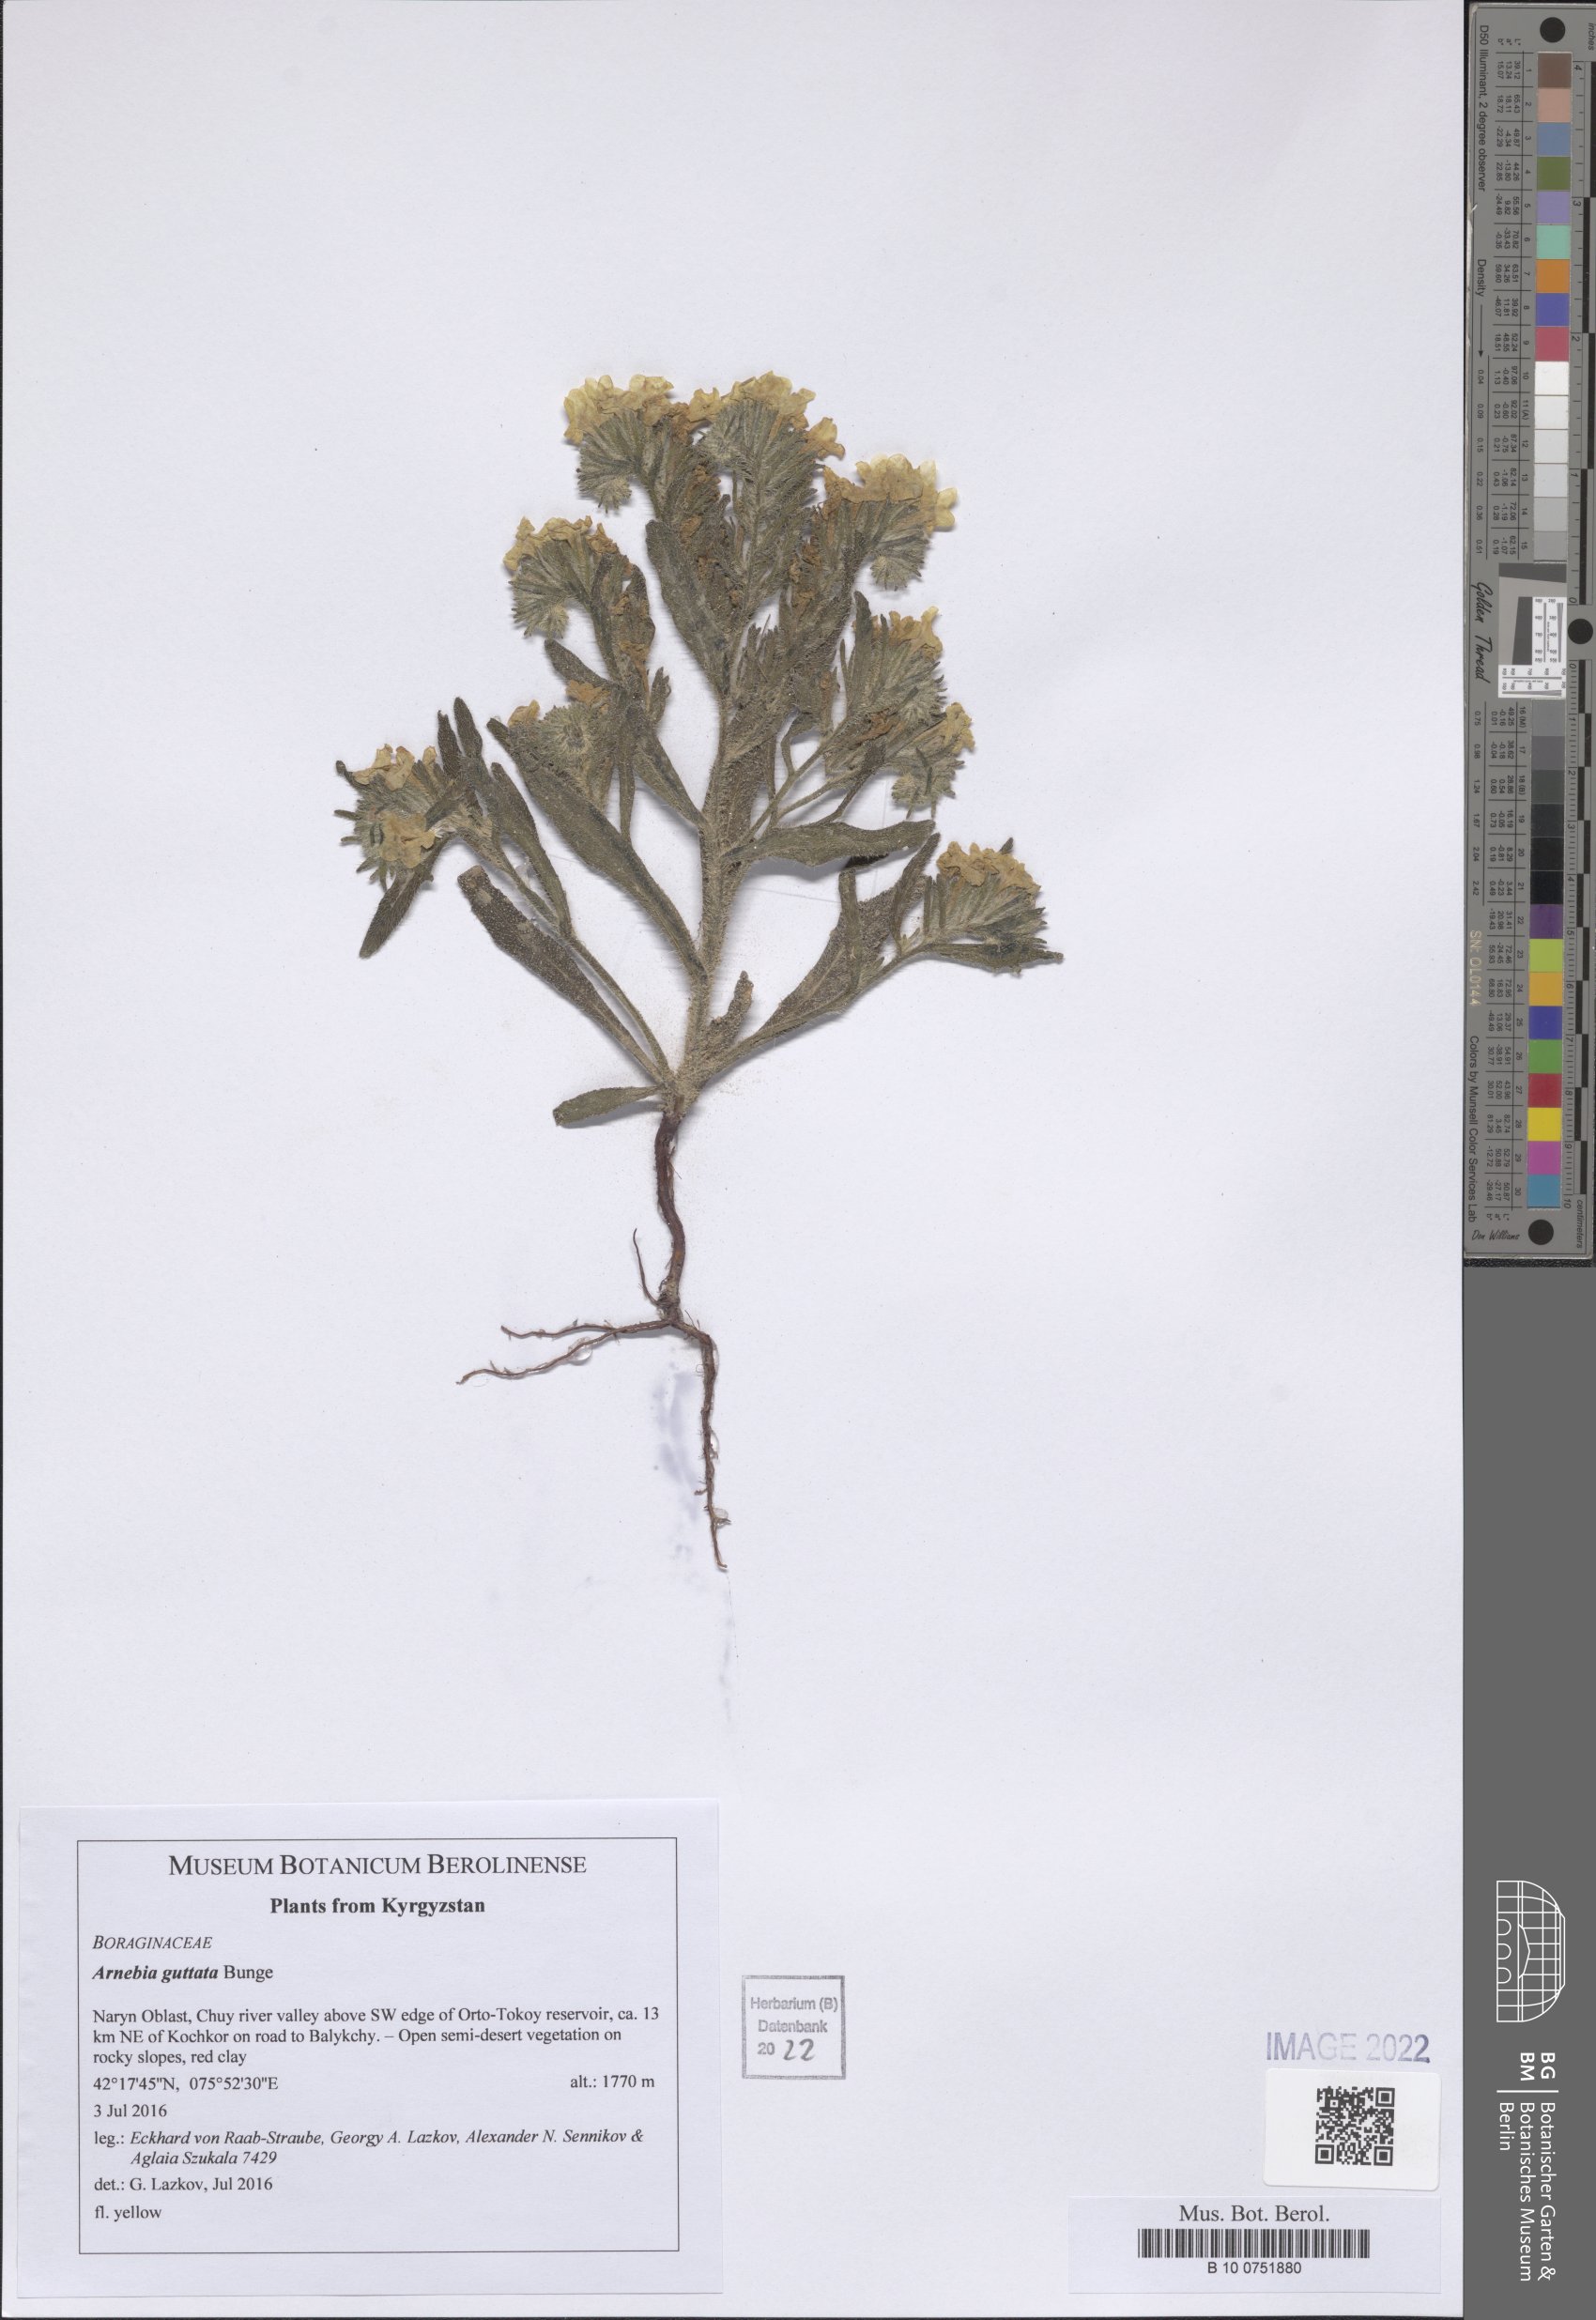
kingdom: Plantae
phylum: Tracheophyta
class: Magnoliopsida
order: Boraginales
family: Boraginaceae
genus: Arnebia
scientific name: Arnebia guttata
